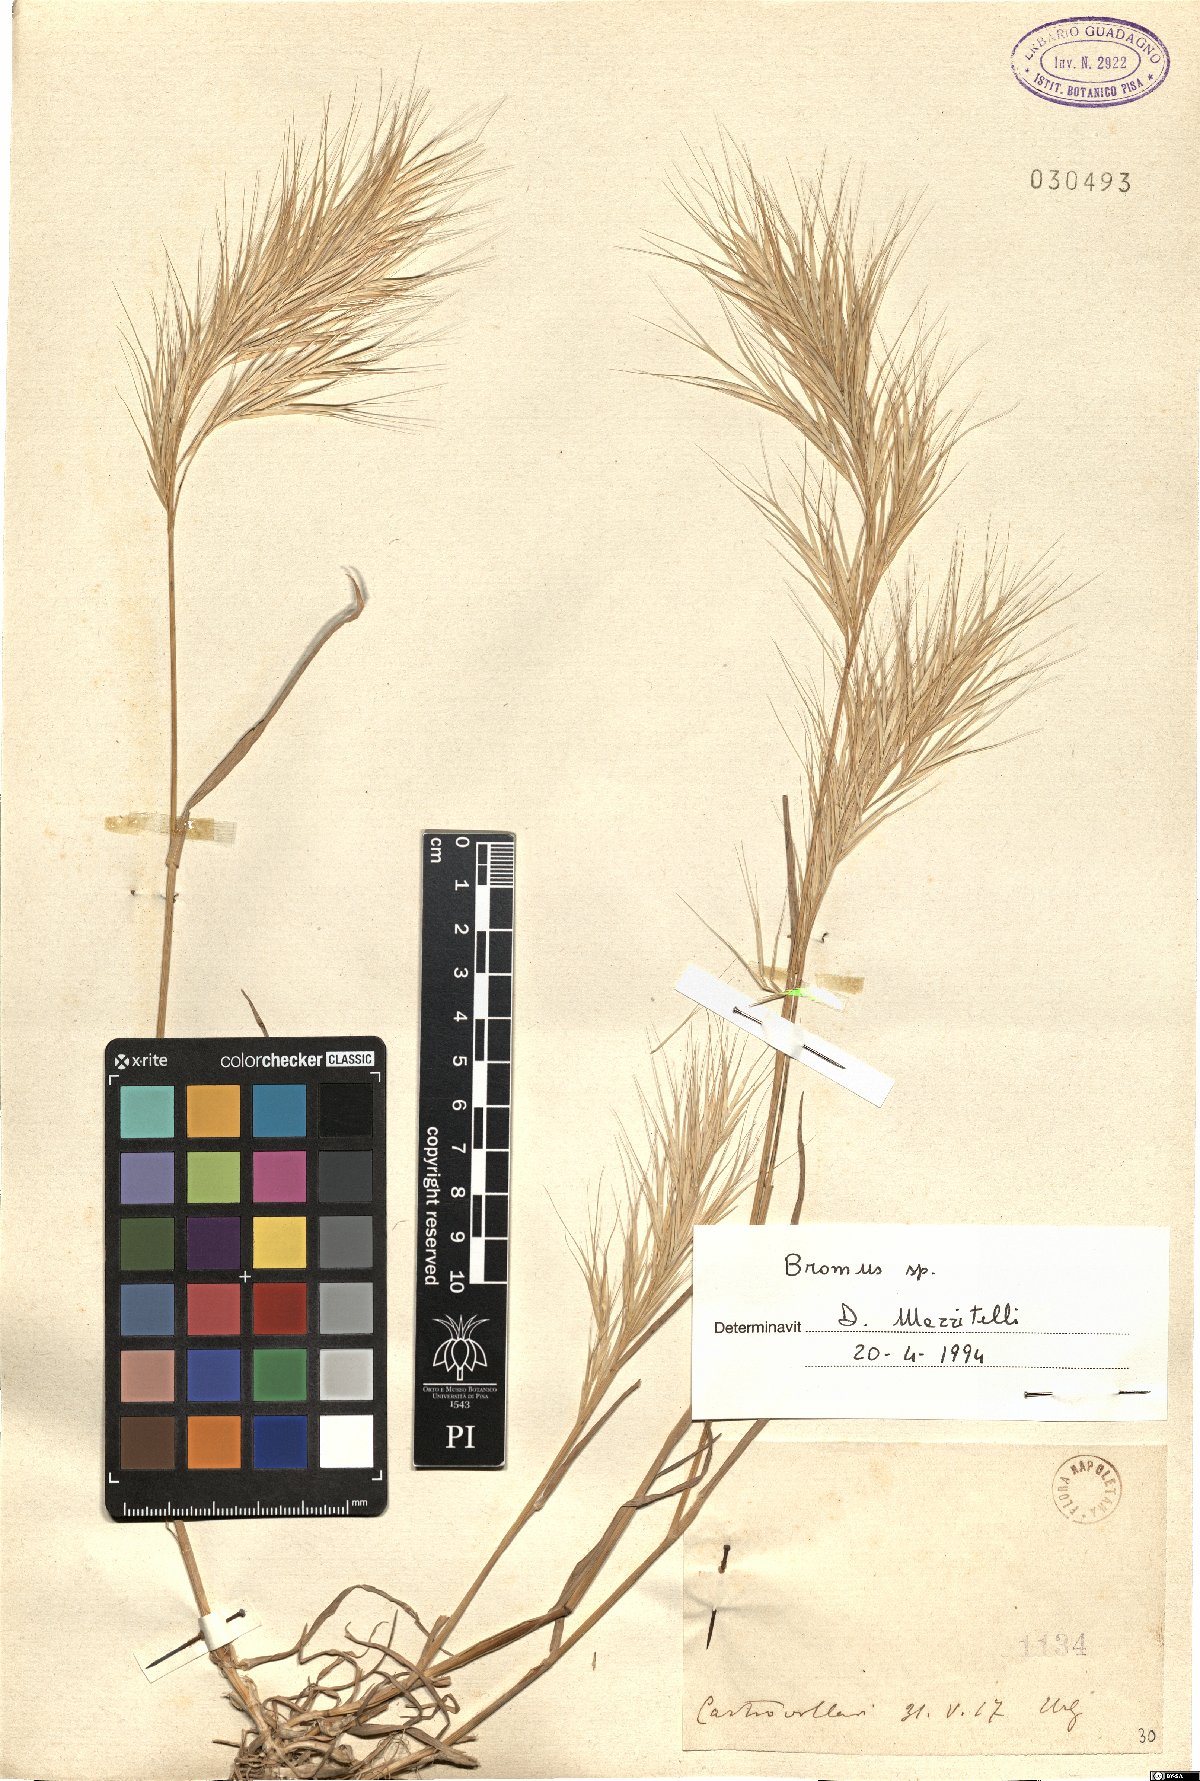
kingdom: Plantae
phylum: Tracheophyta
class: Liliopsida
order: Poales
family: Poaceae
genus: Bromus
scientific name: Bromus
